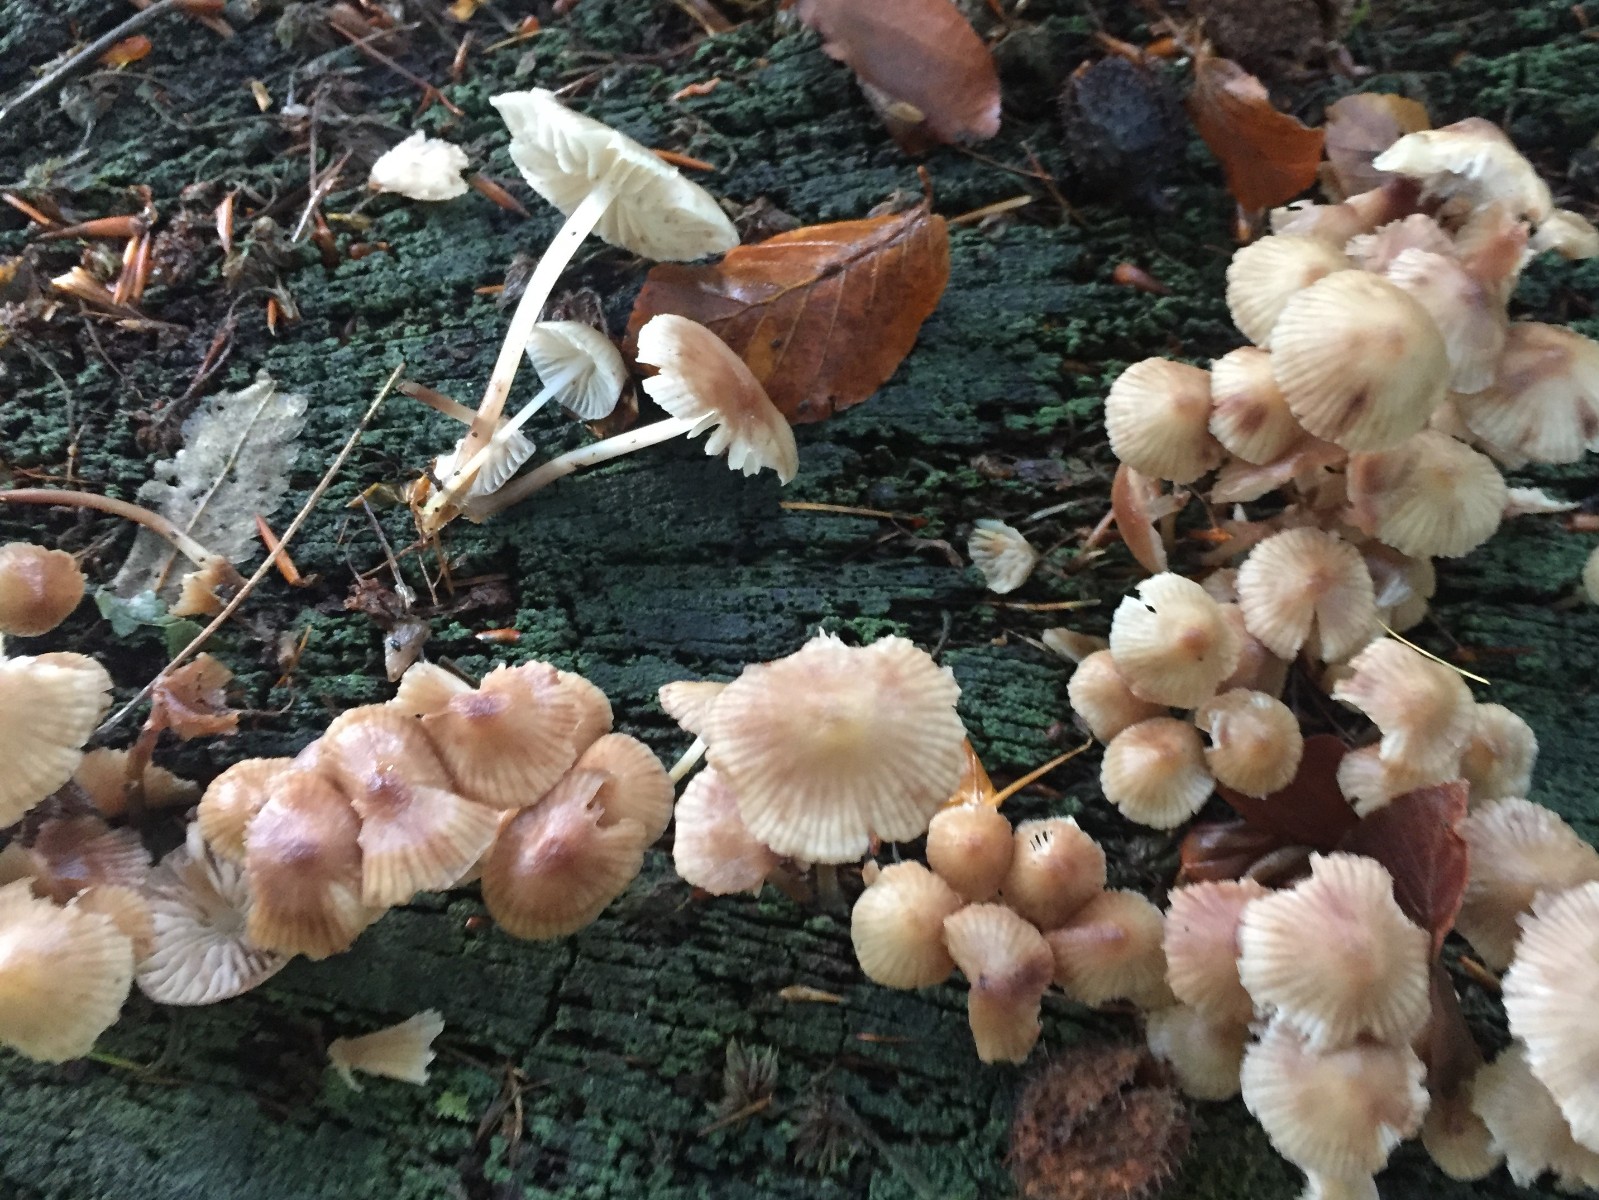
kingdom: Fungi
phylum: Basidiomycota
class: Agaricomycetes
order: Agaricales
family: Mycenaceae
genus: Mycena
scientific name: Mycena inclinata
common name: nikkende huesvamp
